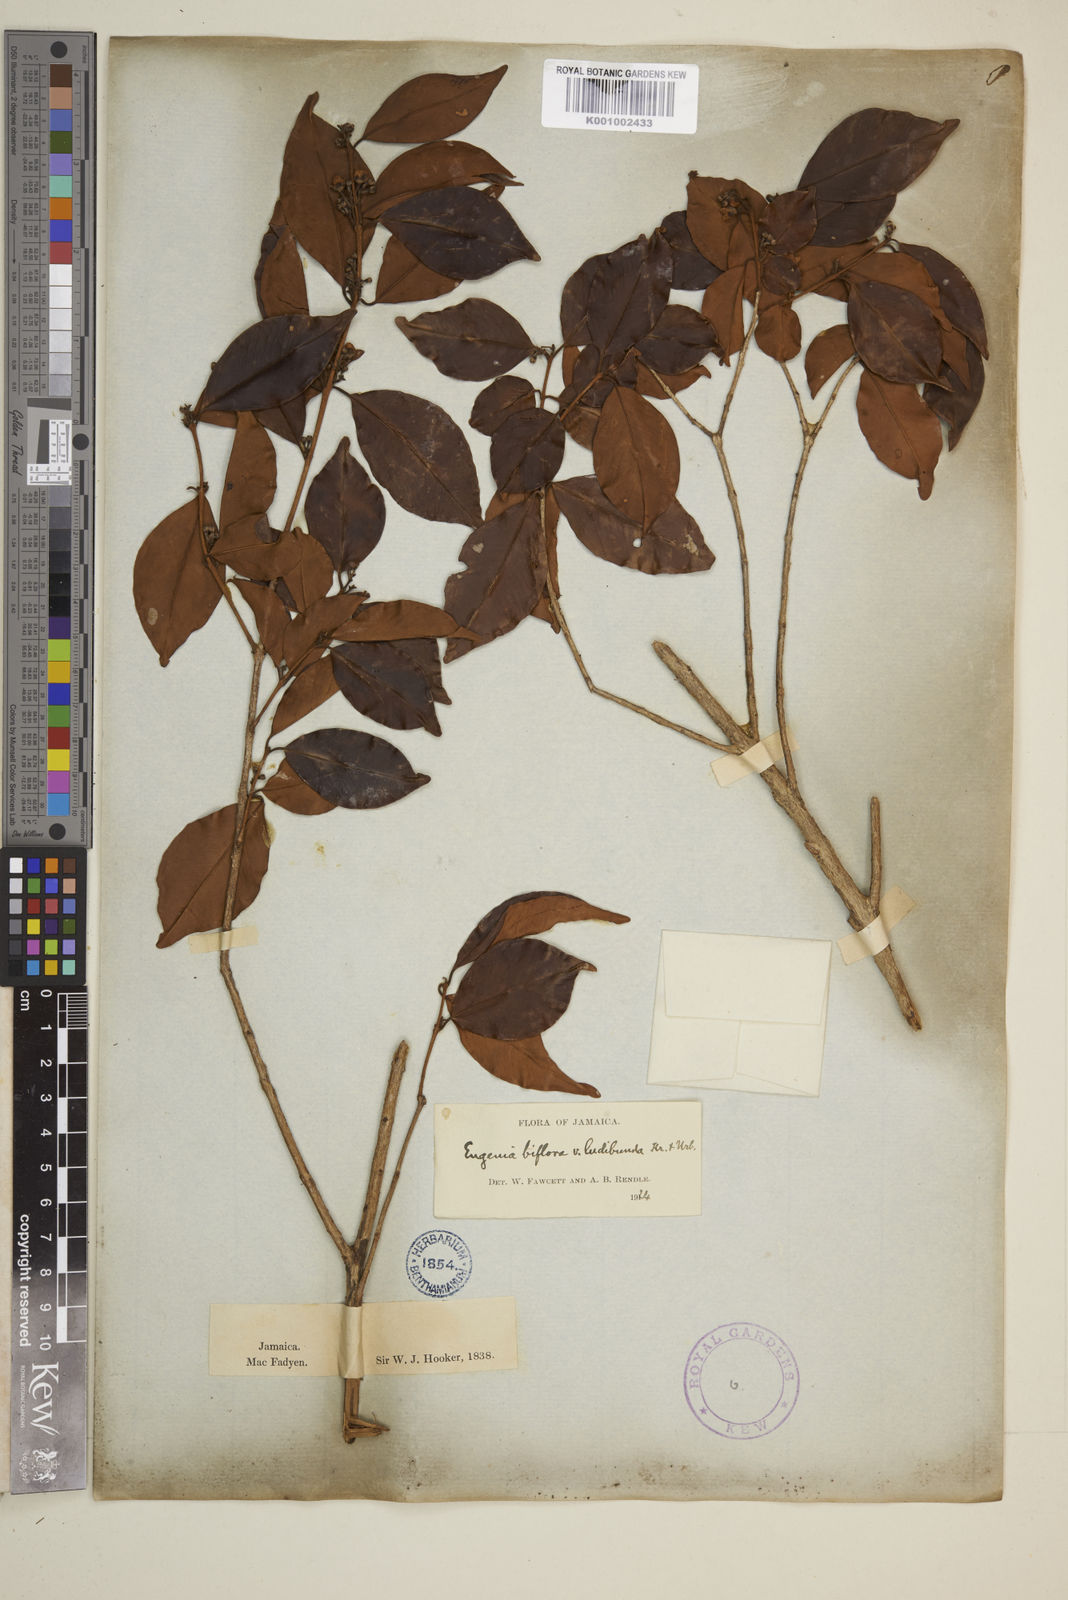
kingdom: Plantae
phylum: Tracheophyta
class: Magnoliopsida
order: Myrtales
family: Myrtaceae
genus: Eugenia
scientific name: Eugenia biflora
